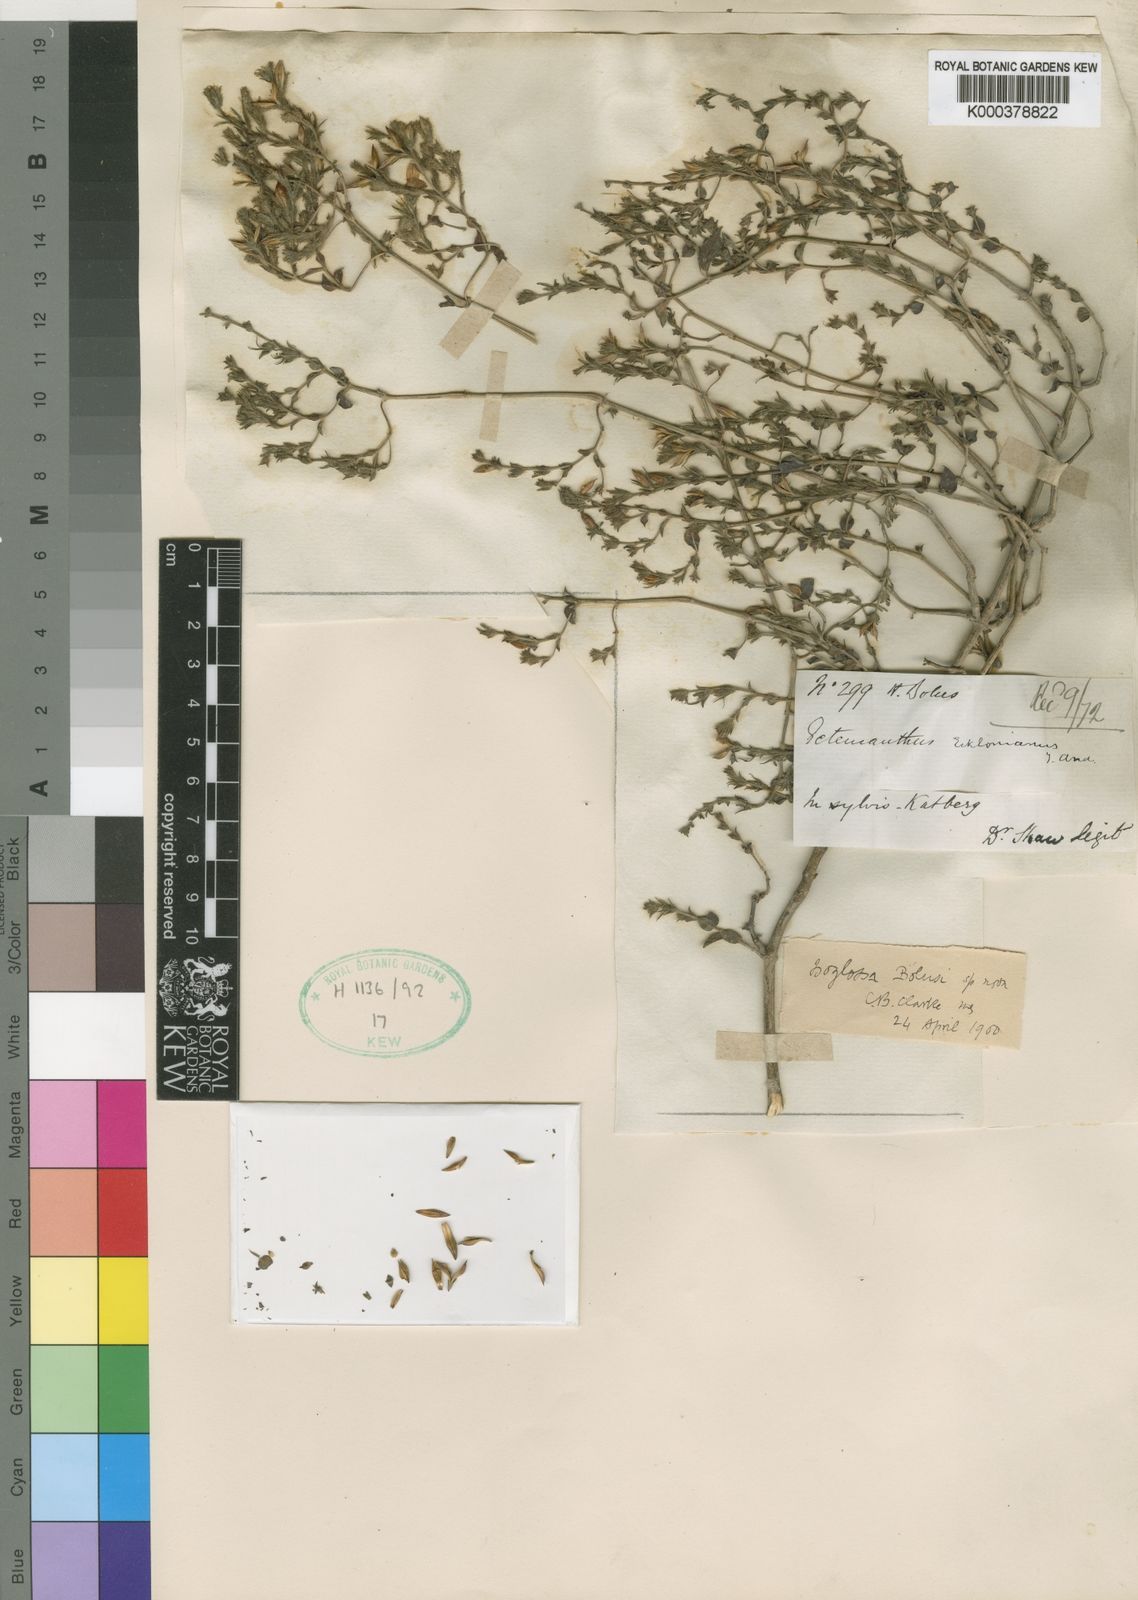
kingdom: Plantae
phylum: Tracheophyta
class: Magnoliopsida
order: Lamiales
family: Acanthaceae
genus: Isoglossa
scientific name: Isoglossa macowanii
